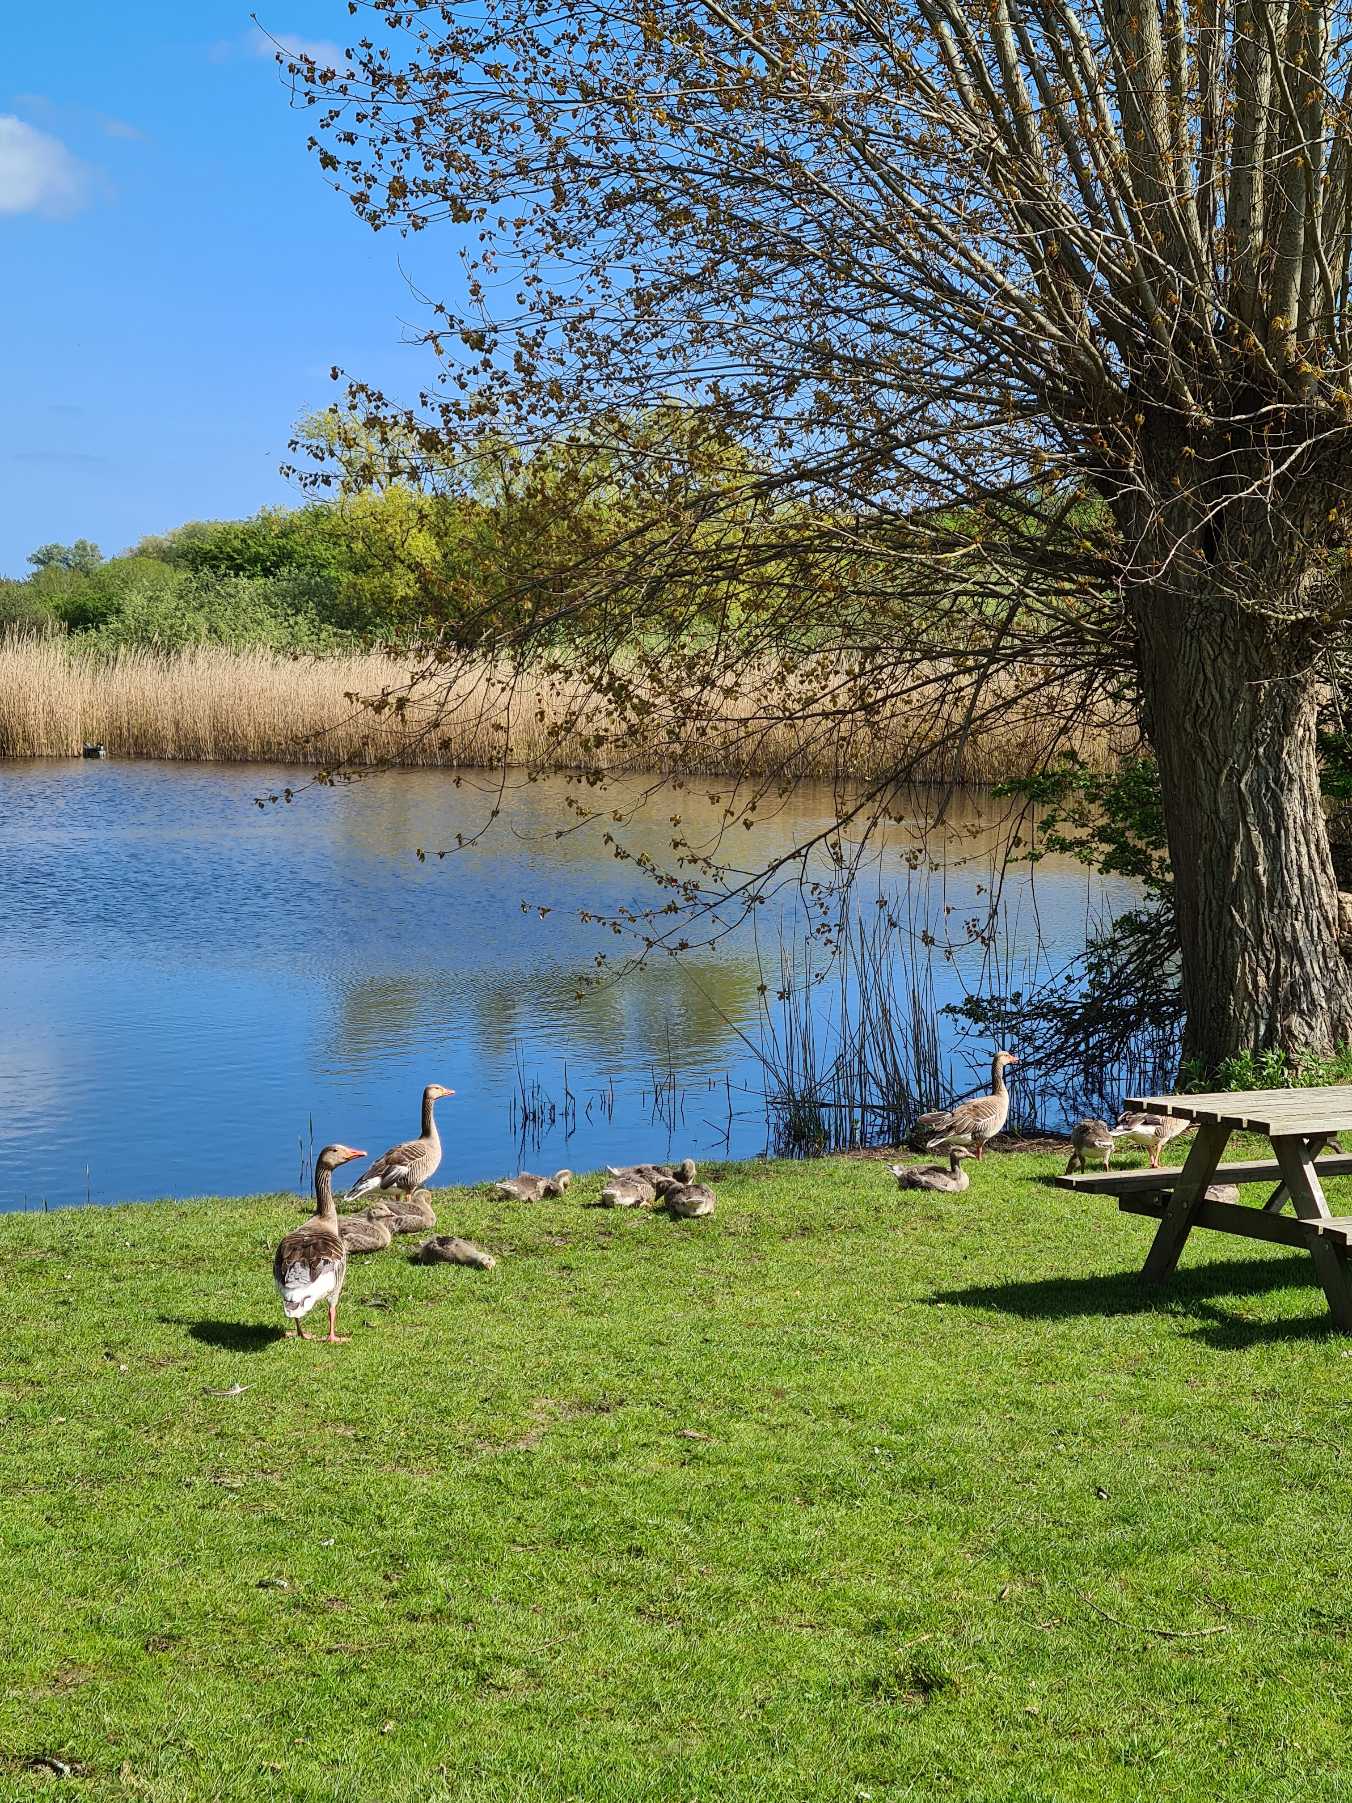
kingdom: Animalia
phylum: Chordata
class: Aves
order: Anseriformes
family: Anatidae
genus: Anser
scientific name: Anser anser
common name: Grågås
